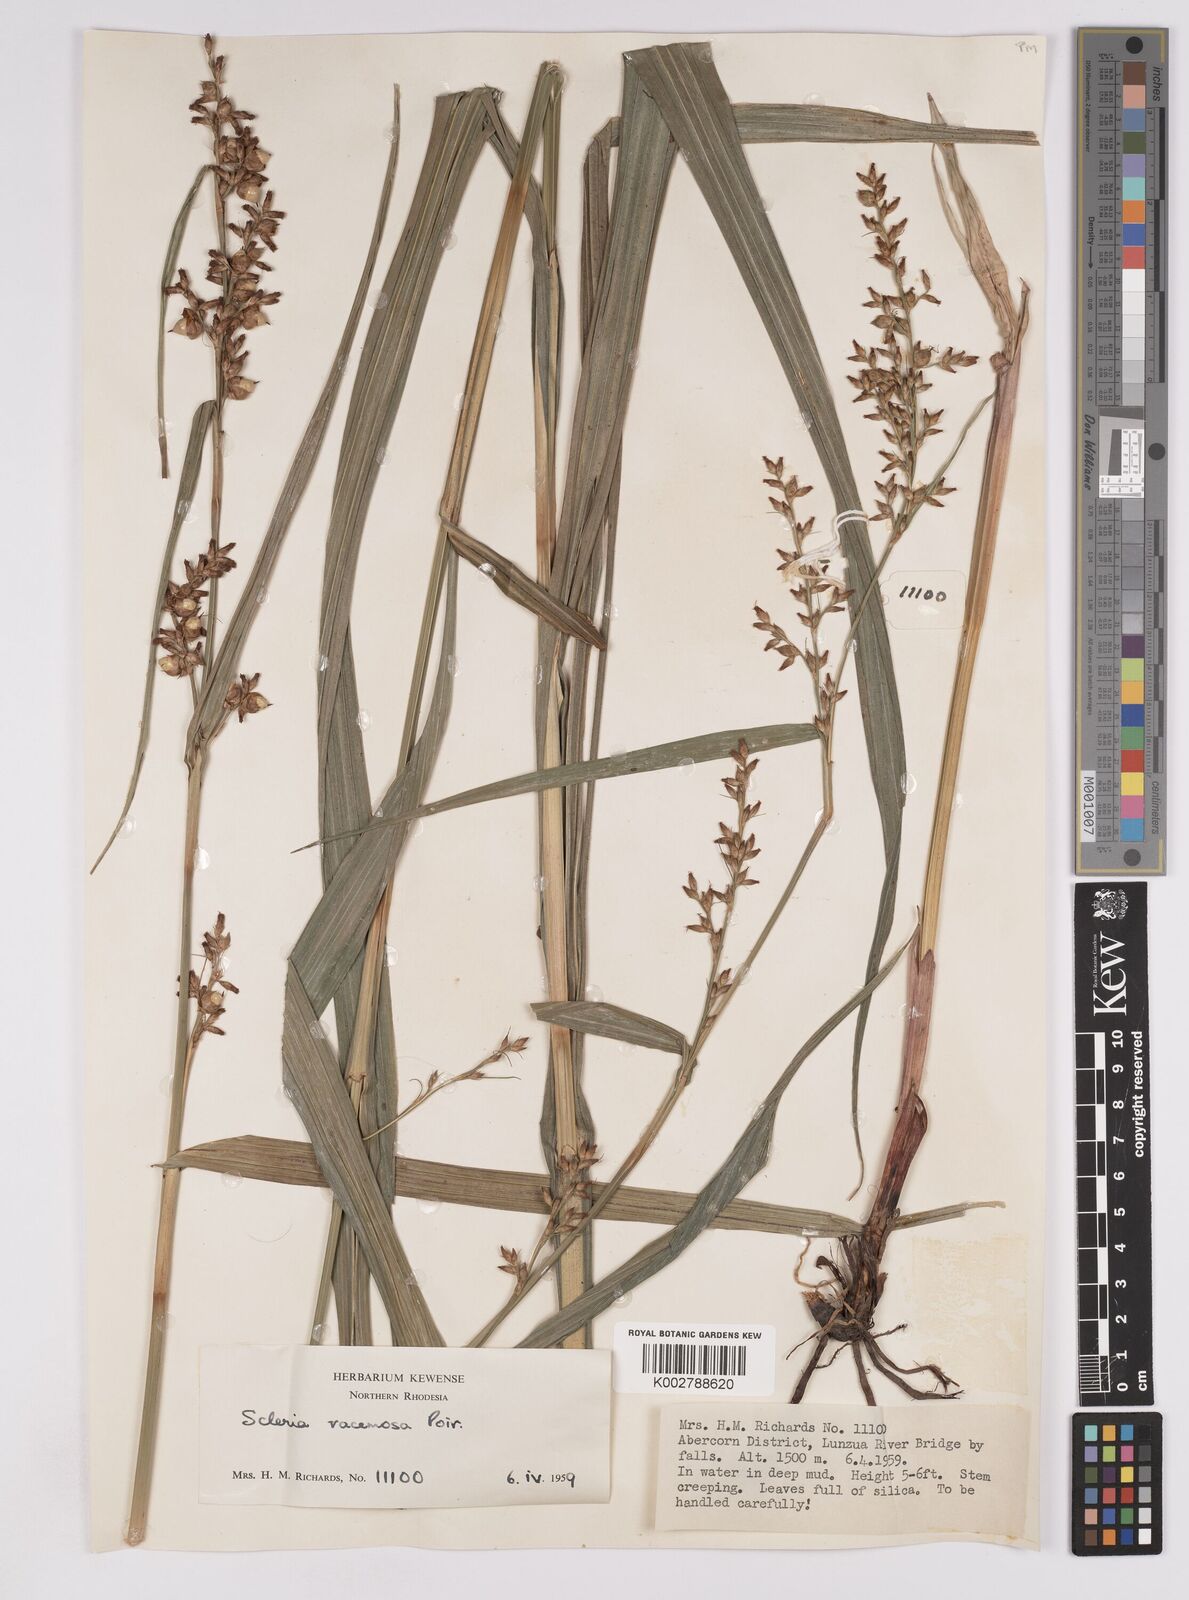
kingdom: Plantae
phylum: Tracheophyta
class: Liliopsida
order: Poales
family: Cyperaceae
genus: Scleria
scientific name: Scleria racemosa
